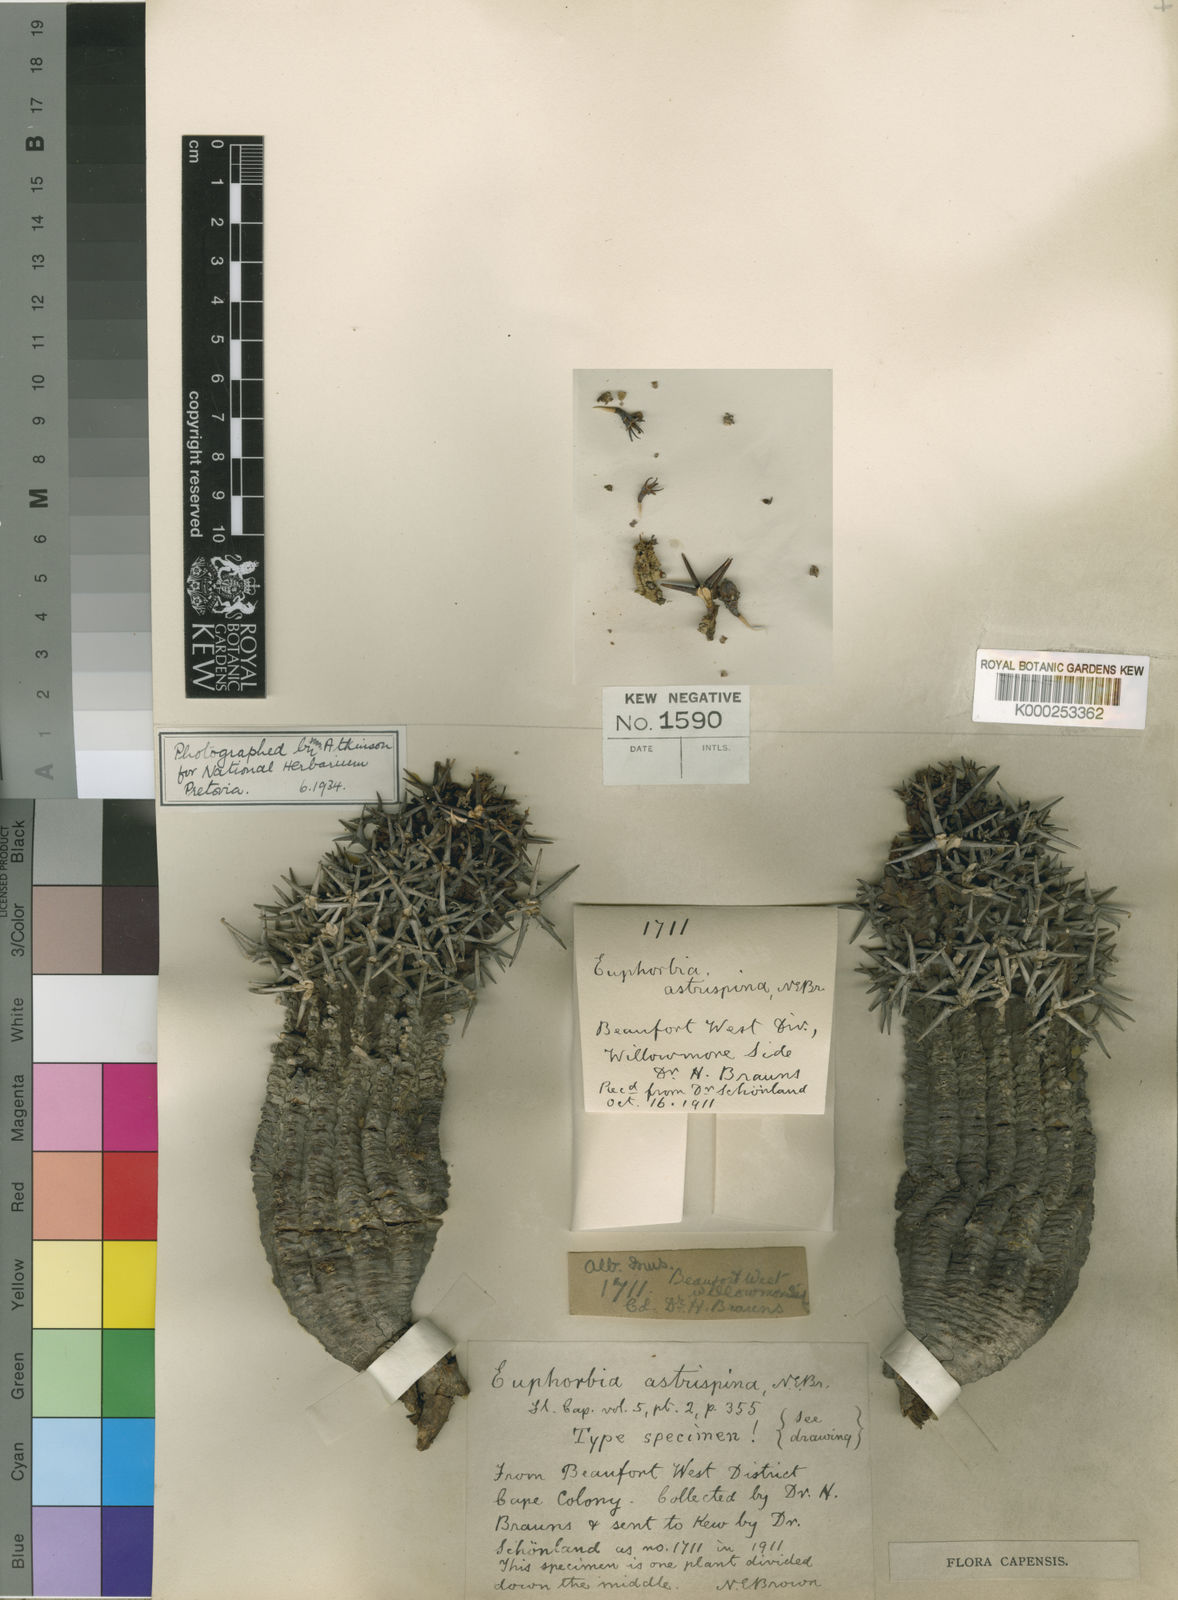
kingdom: Plantae
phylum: Tracheophyta
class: Magnoliopsida
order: Malpighiales
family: Euphorbiaceae
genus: Euphorbia
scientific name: Euphorbia stellispina
